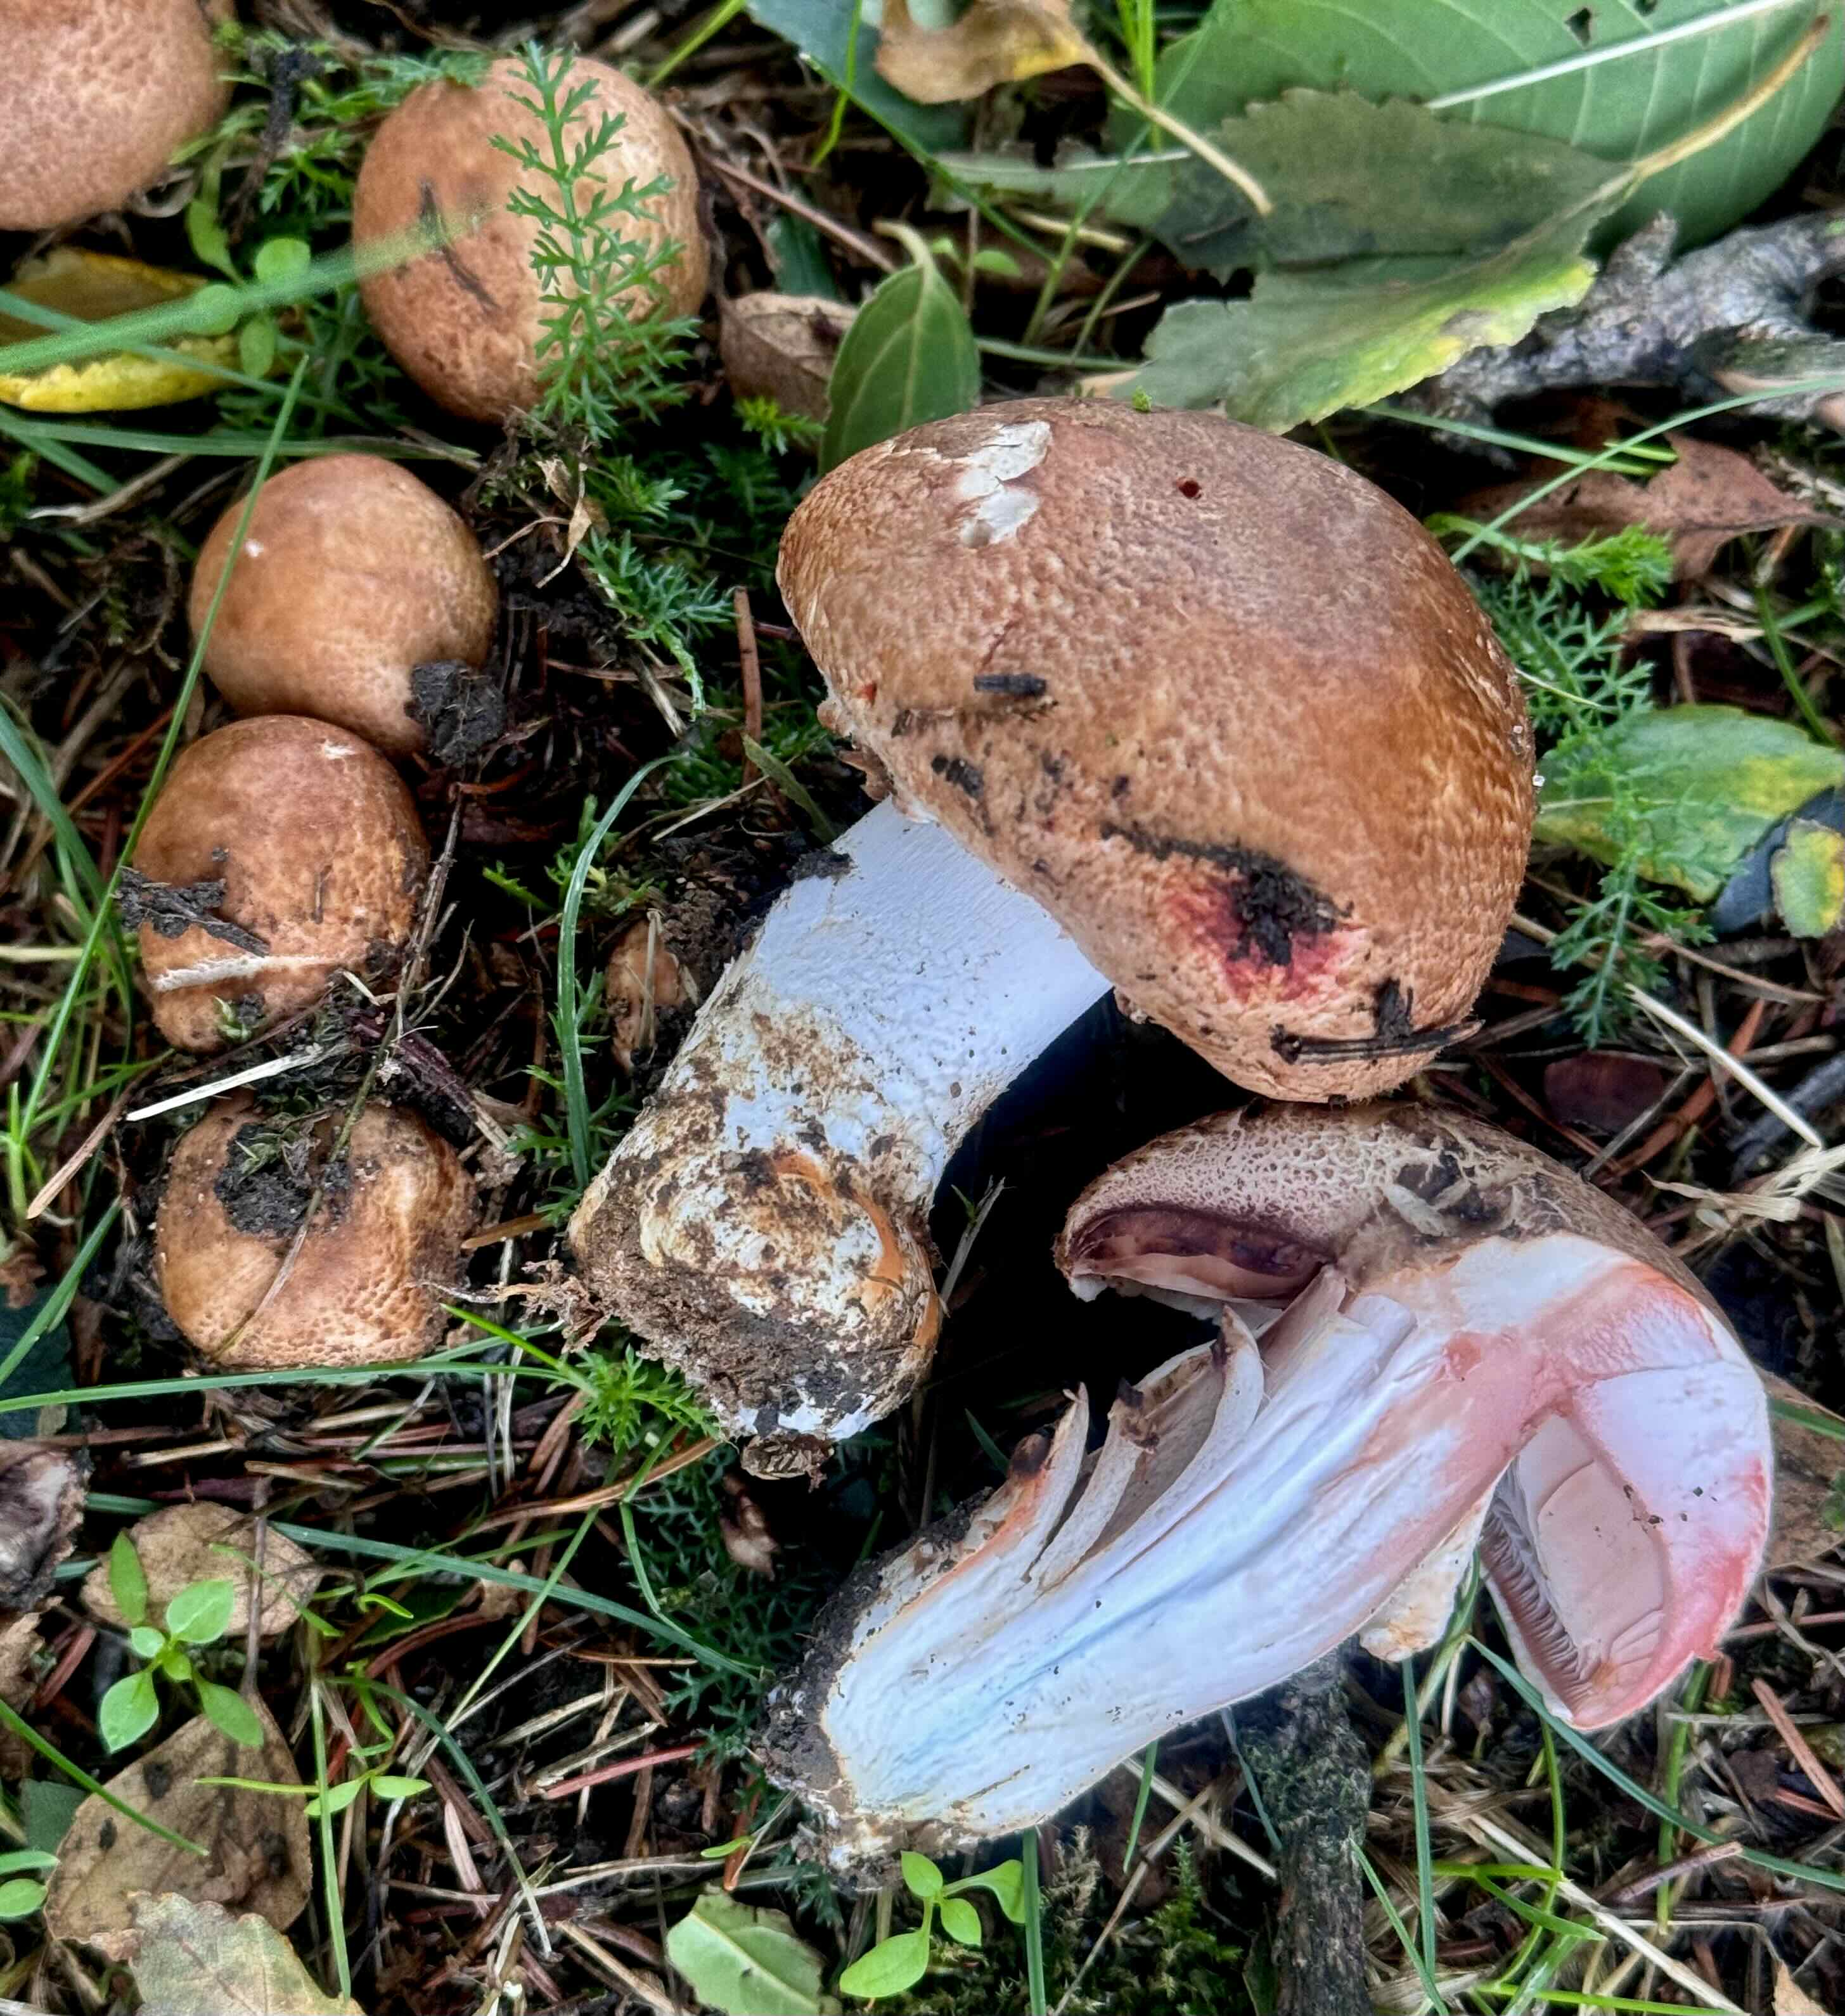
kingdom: Fungi
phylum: Basidiomycota
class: Agaricomycetes
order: Agaricales
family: Agaricaceae
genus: Agaricus
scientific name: Agaricus sylvaticus
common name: lille blod-champignon
